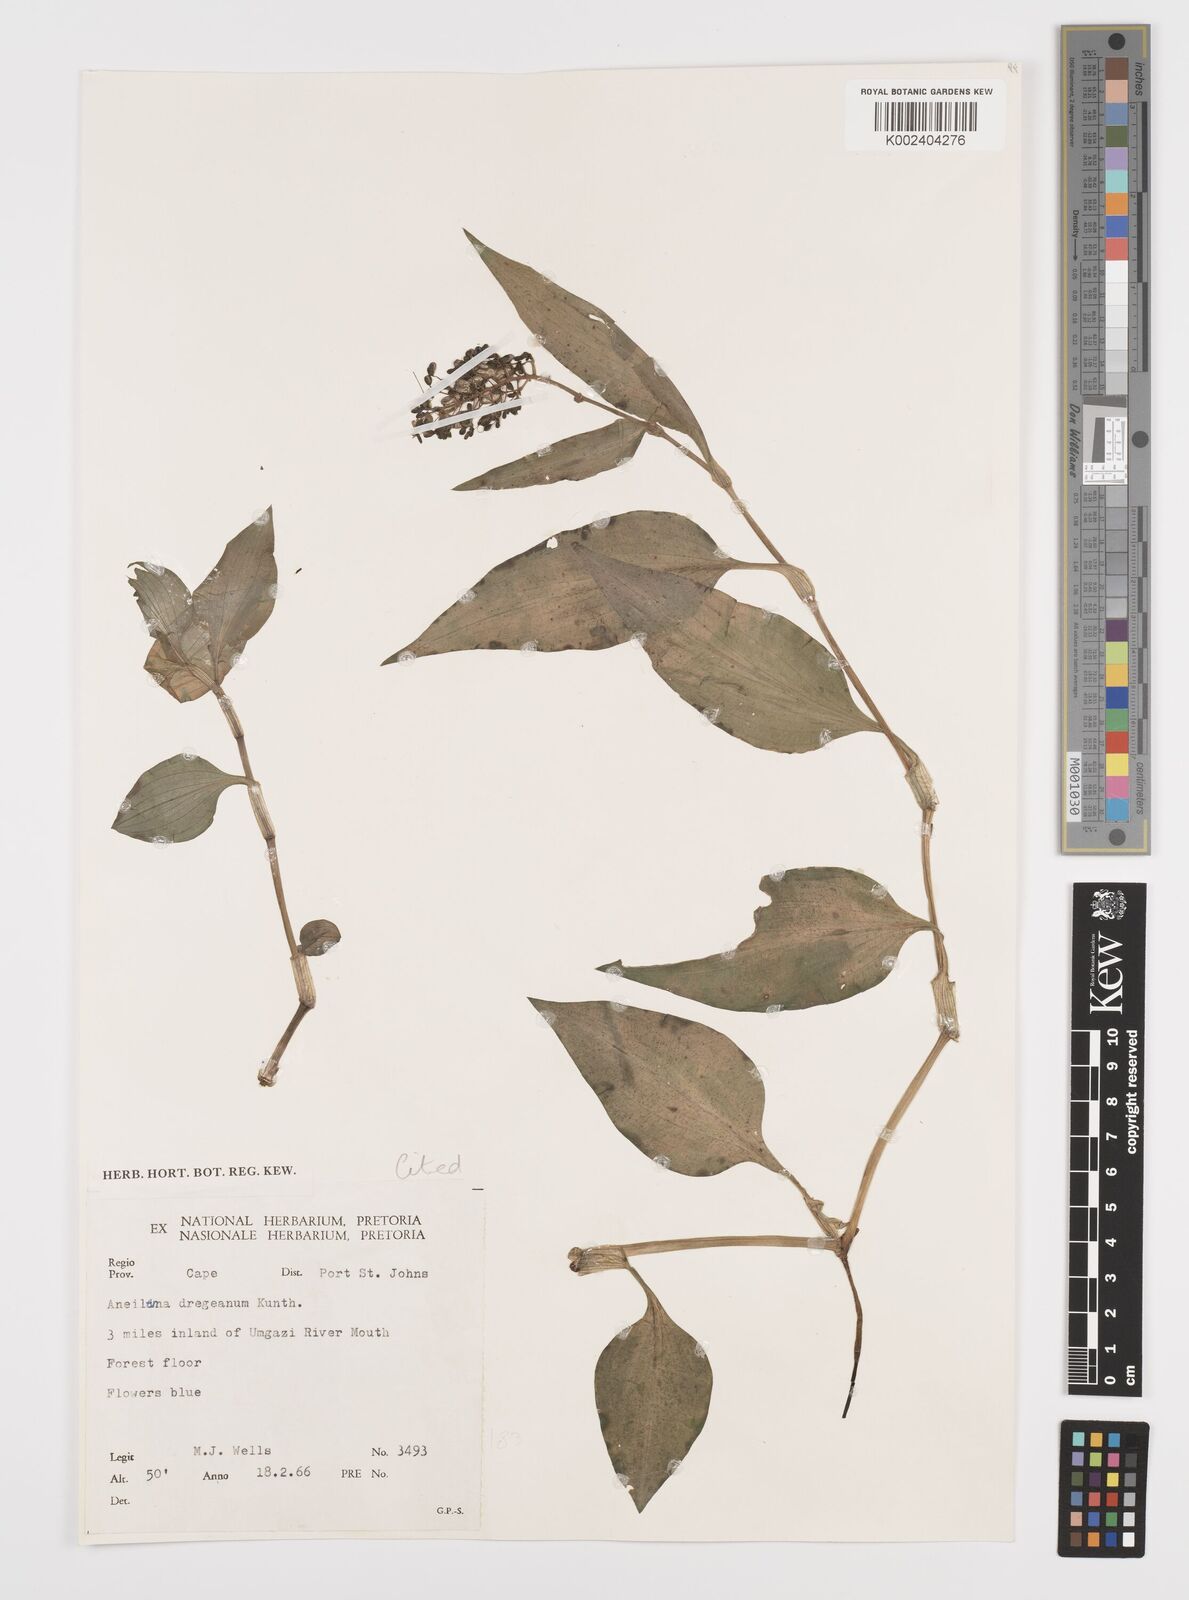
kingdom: Plantae
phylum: Tracheophyta
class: Liliopsida
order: Commelinales
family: Commelinaceae
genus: Aneilema
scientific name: Aneilema dregeanum
